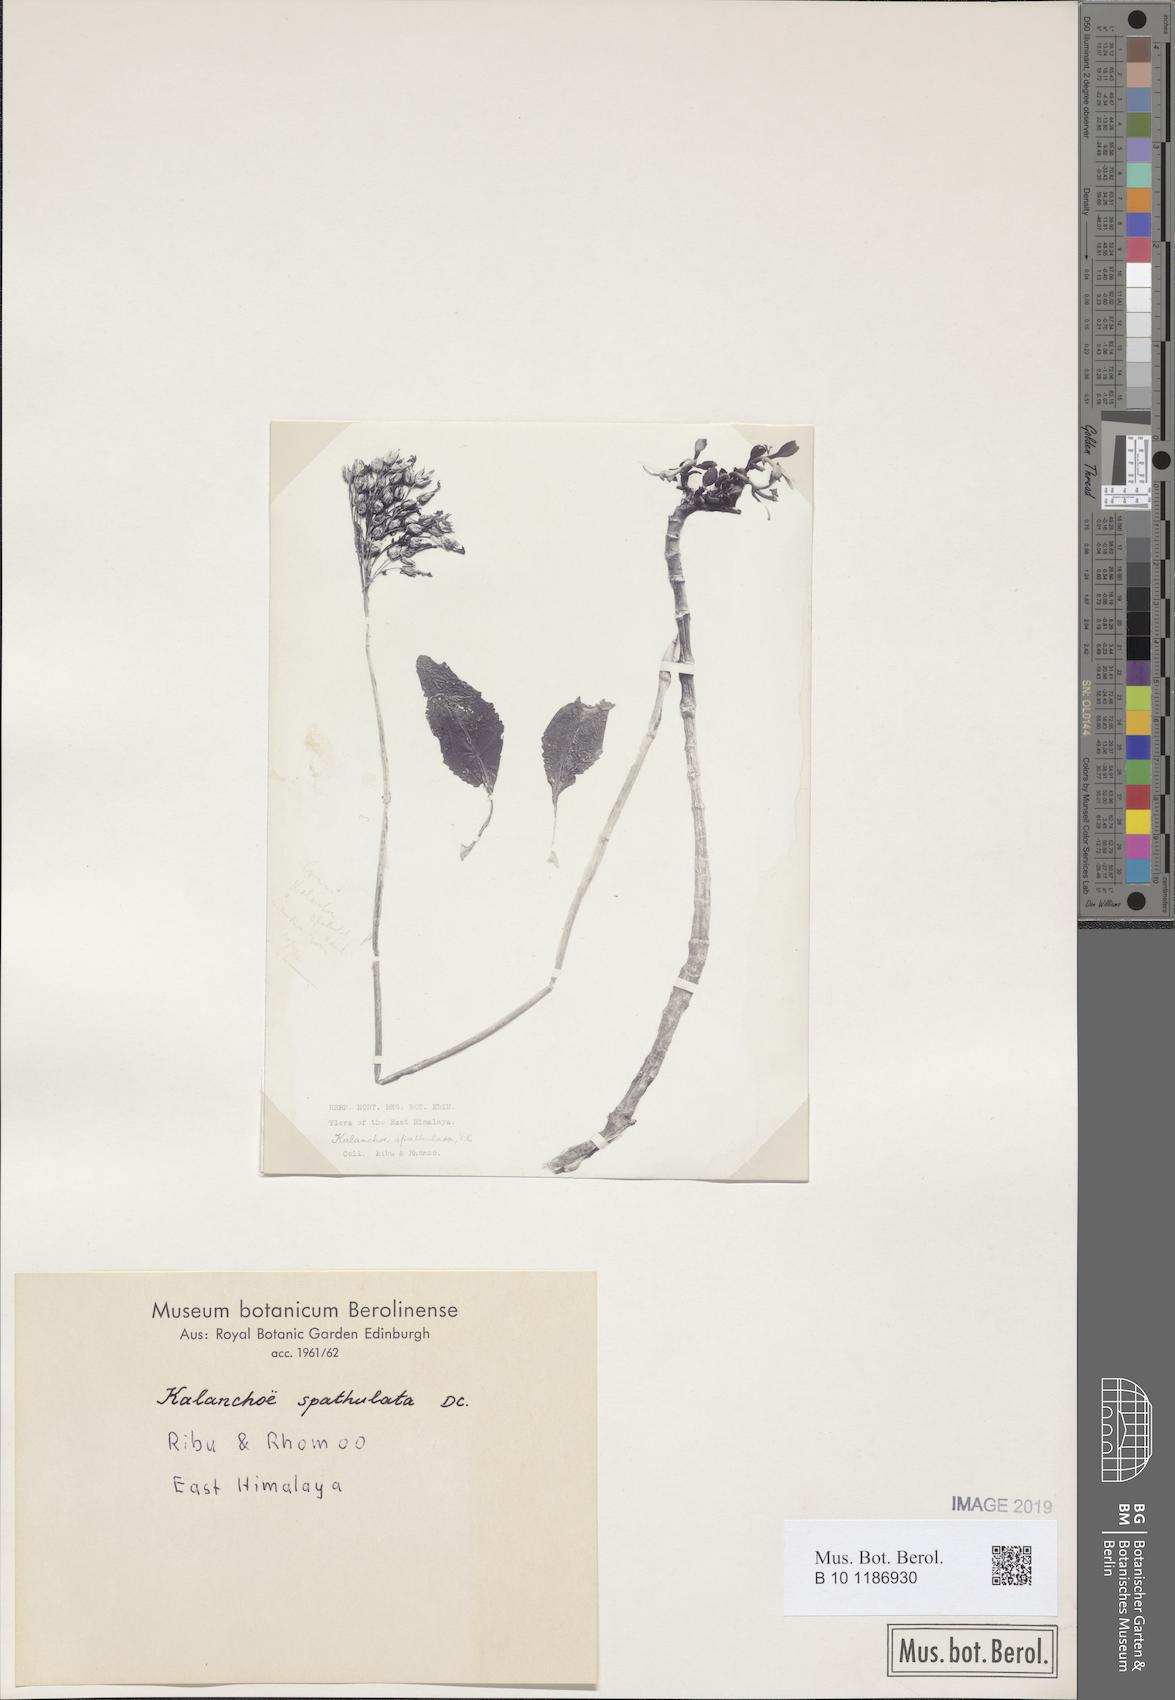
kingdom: Plantae
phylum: Tracheophyta
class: Magnoliopsida
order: Saxifragales
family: Crassulaceae
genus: Kalanchoe
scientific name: Kalanchoe integra
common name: Neverdie
